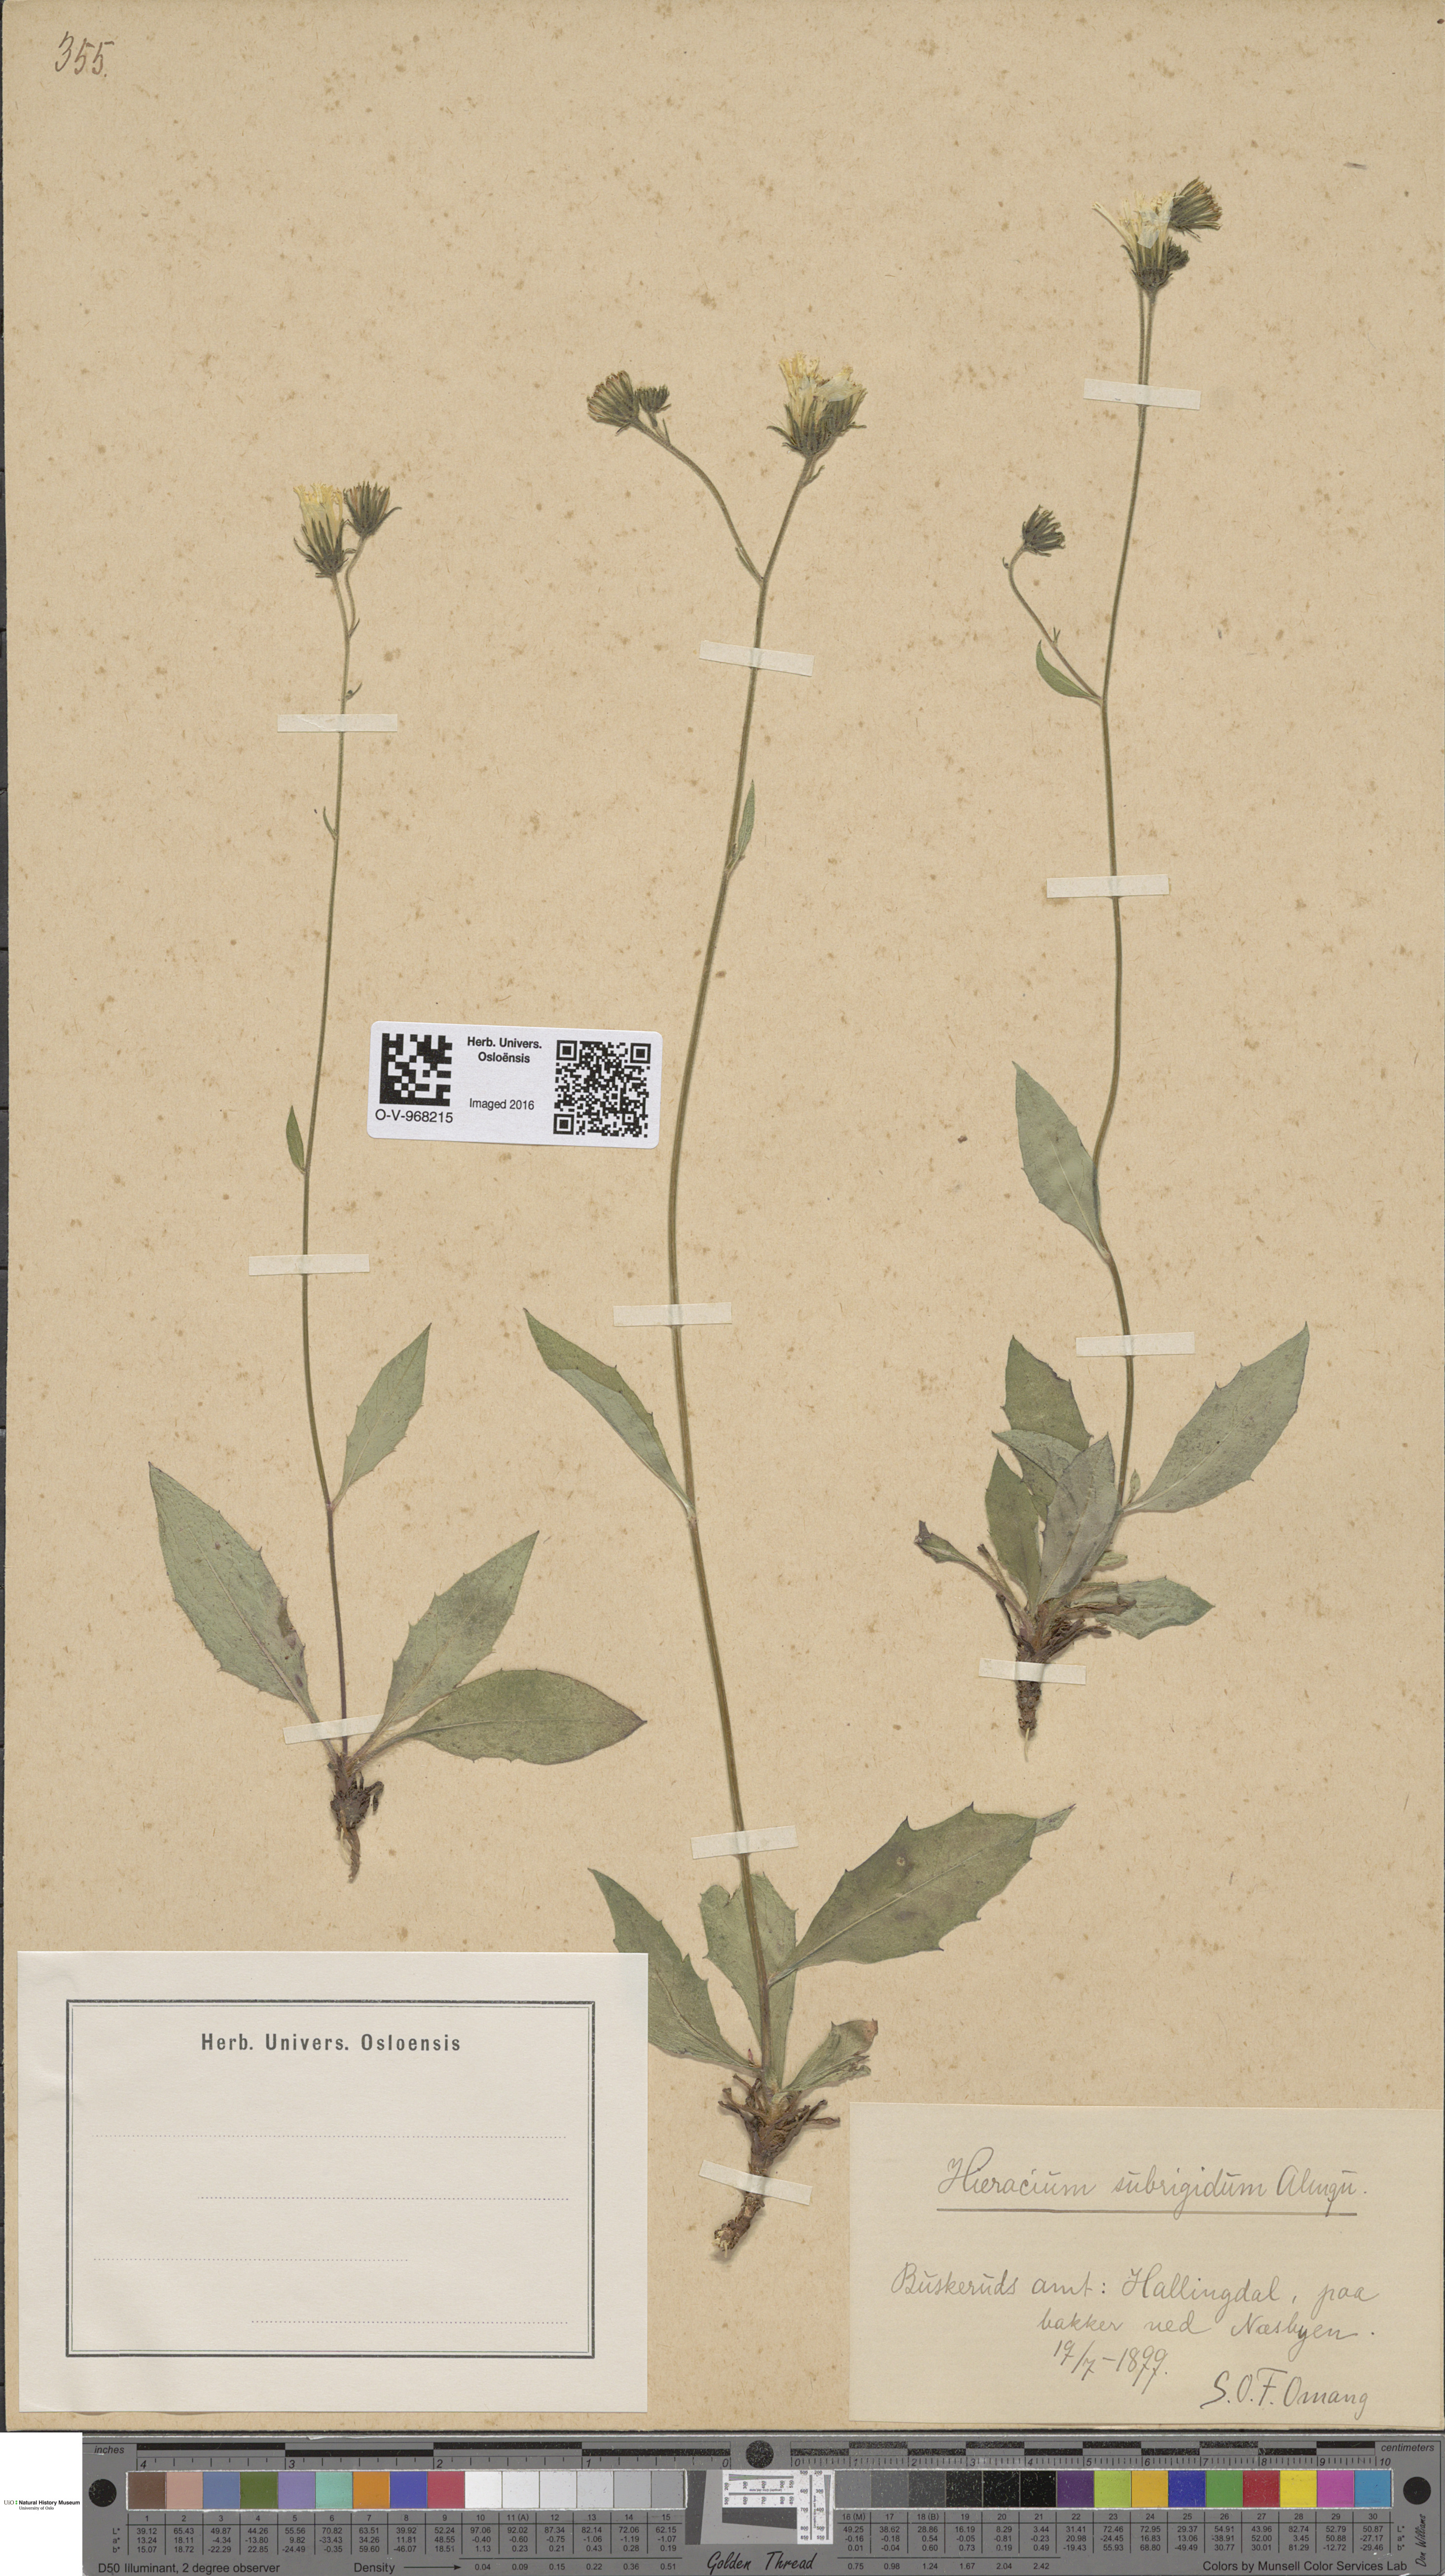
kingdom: Plantae
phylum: Tracheophyta
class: Magnoliopsida
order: Asterales
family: Asteraceae
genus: Hieracium
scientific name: Hieracium subrigidum
